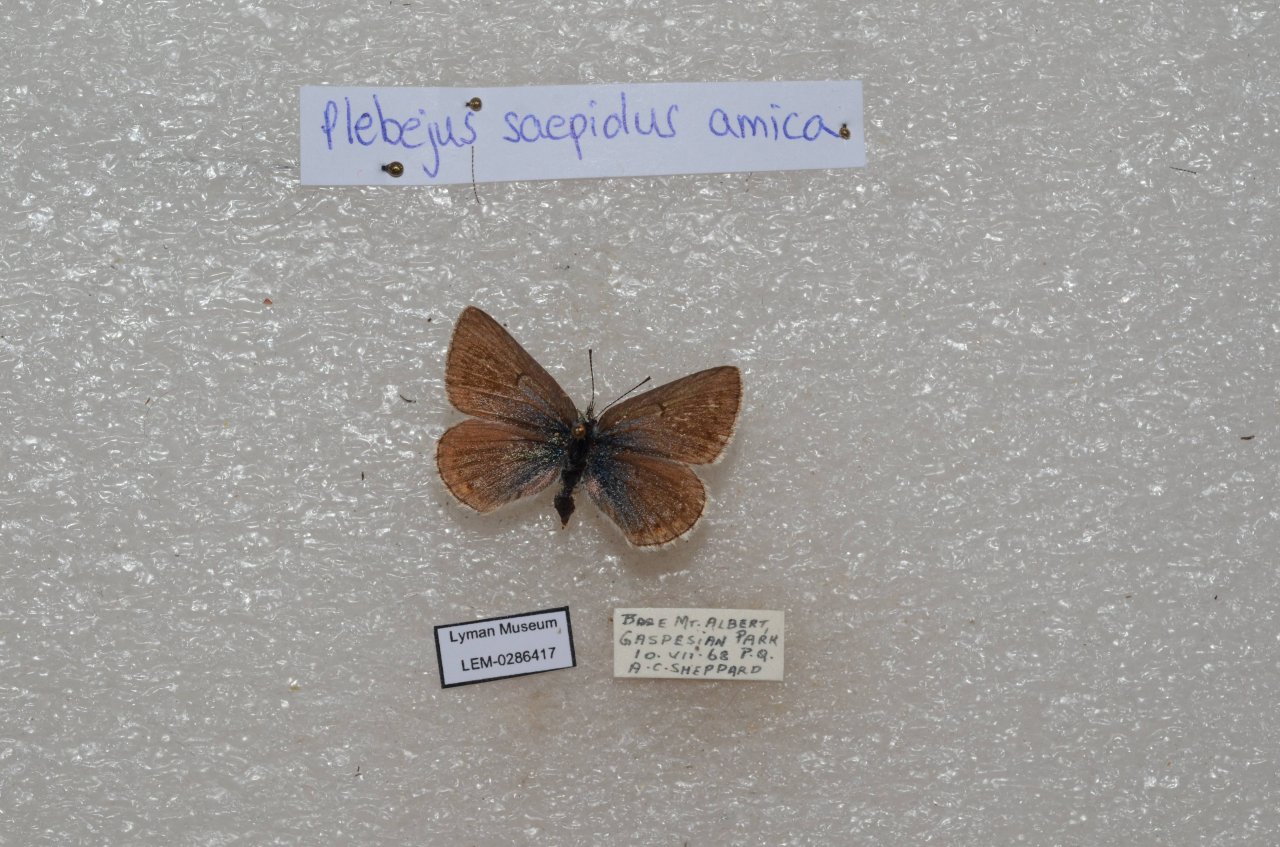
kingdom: Animalia
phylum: Arthropoda
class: Insecta
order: Lepidoptera
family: Lycaenidae
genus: Plebejus
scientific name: Plebejus saepiolus
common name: Greenish Blue
